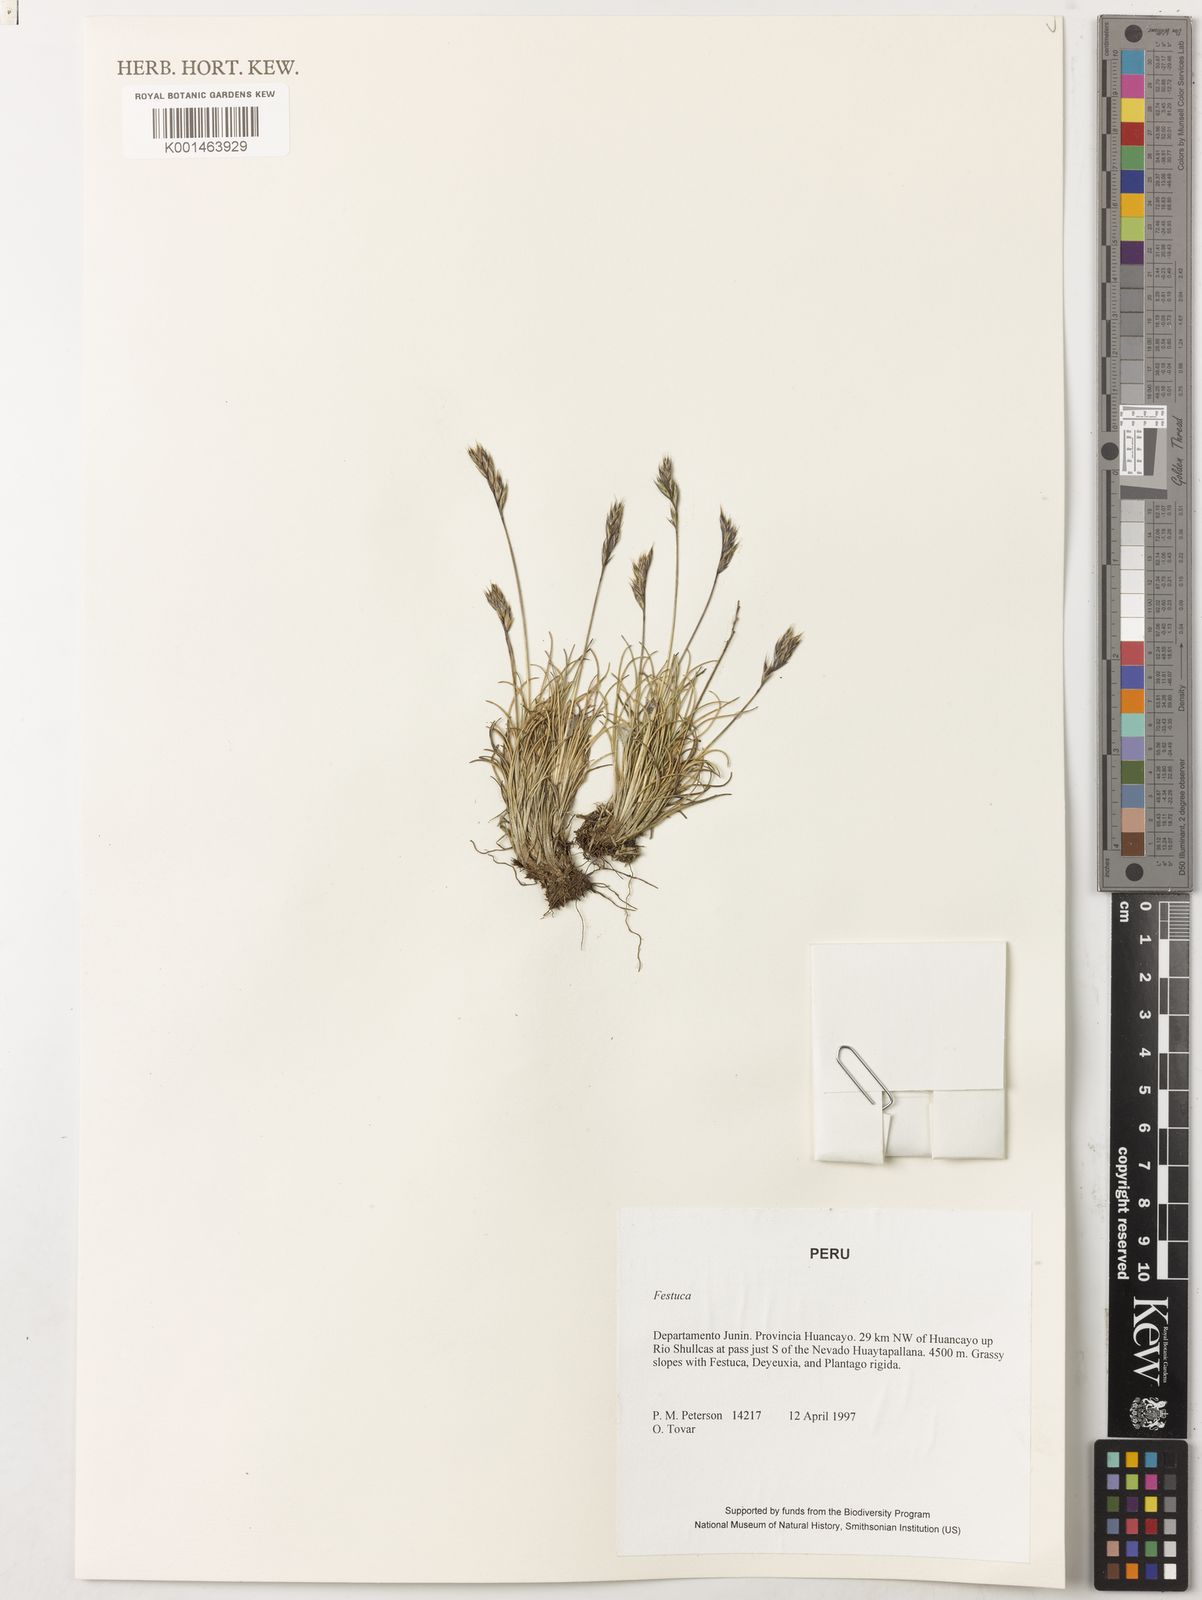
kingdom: Plantae
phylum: Tracheophyta
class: Liliopsida
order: Poales
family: Poaceae
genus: Festuca
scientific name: Festuca peruviana
